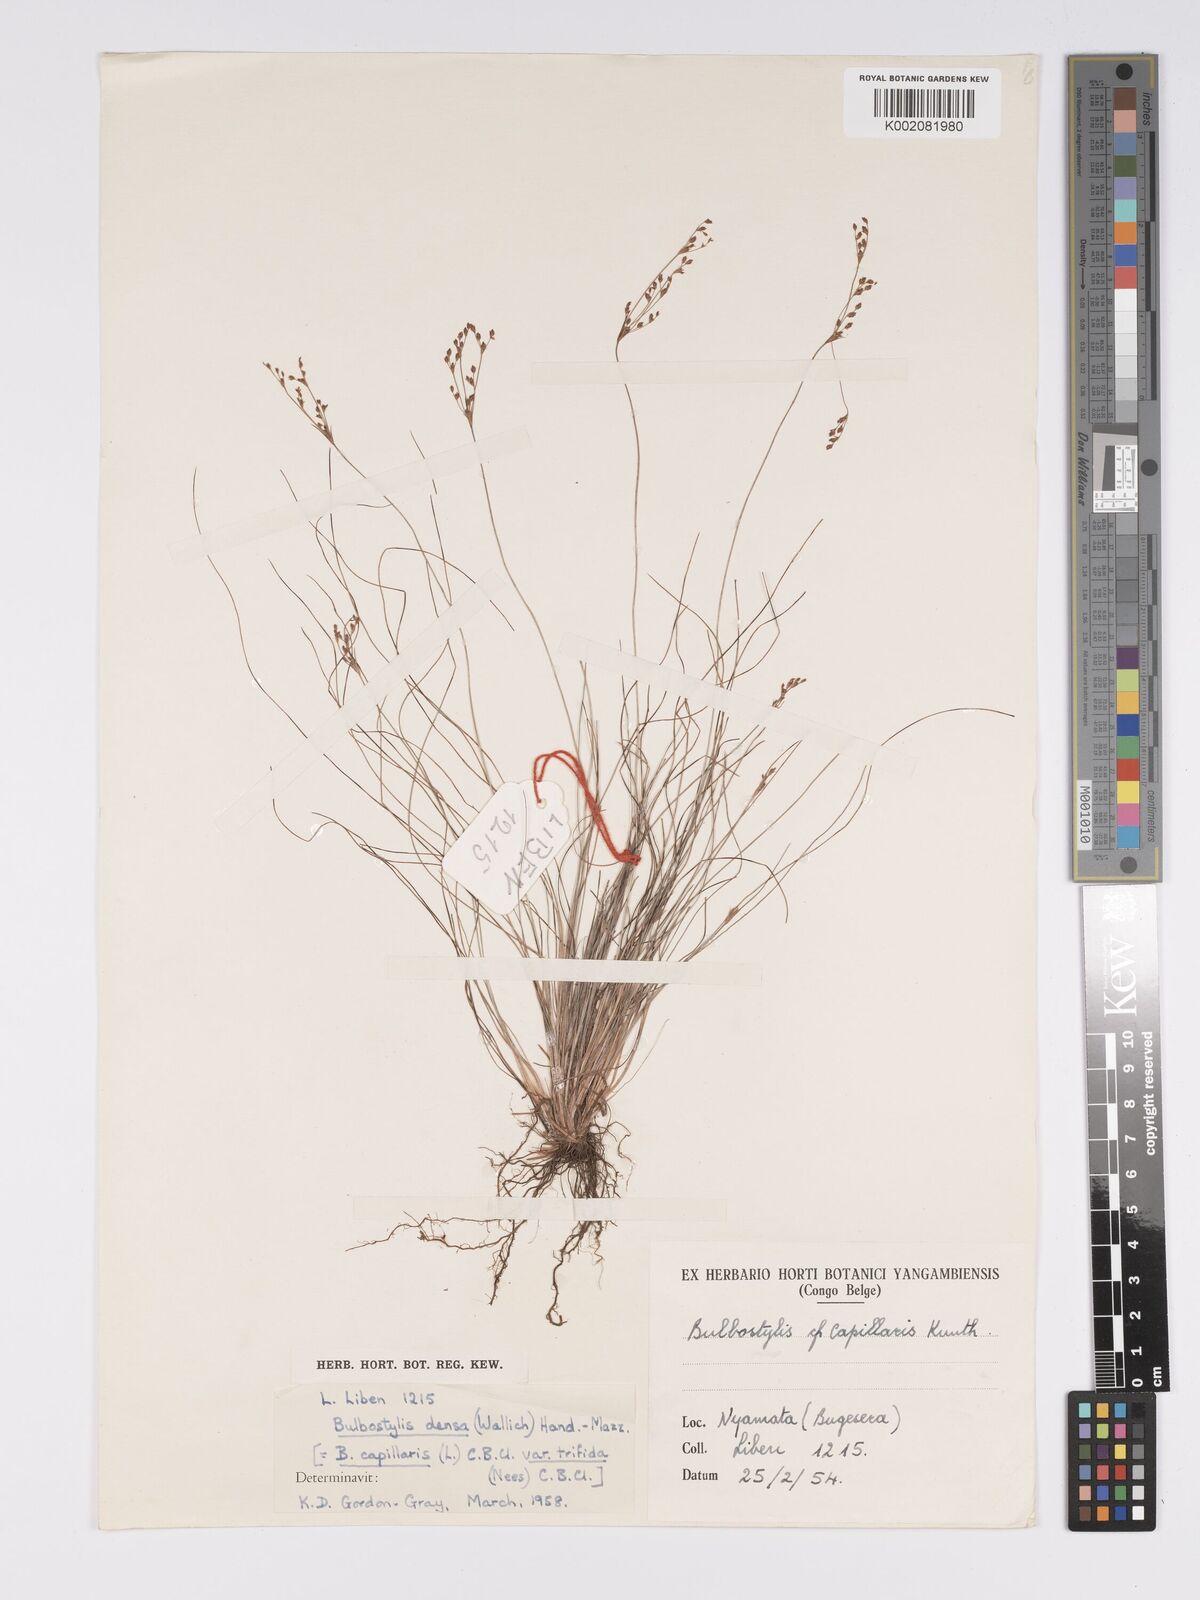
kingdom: Plantae
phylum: Tracheophyta
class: Liliopsida
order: Poales
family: Cyperaceae
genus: Bulbostylis
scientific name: Bulbostylis
